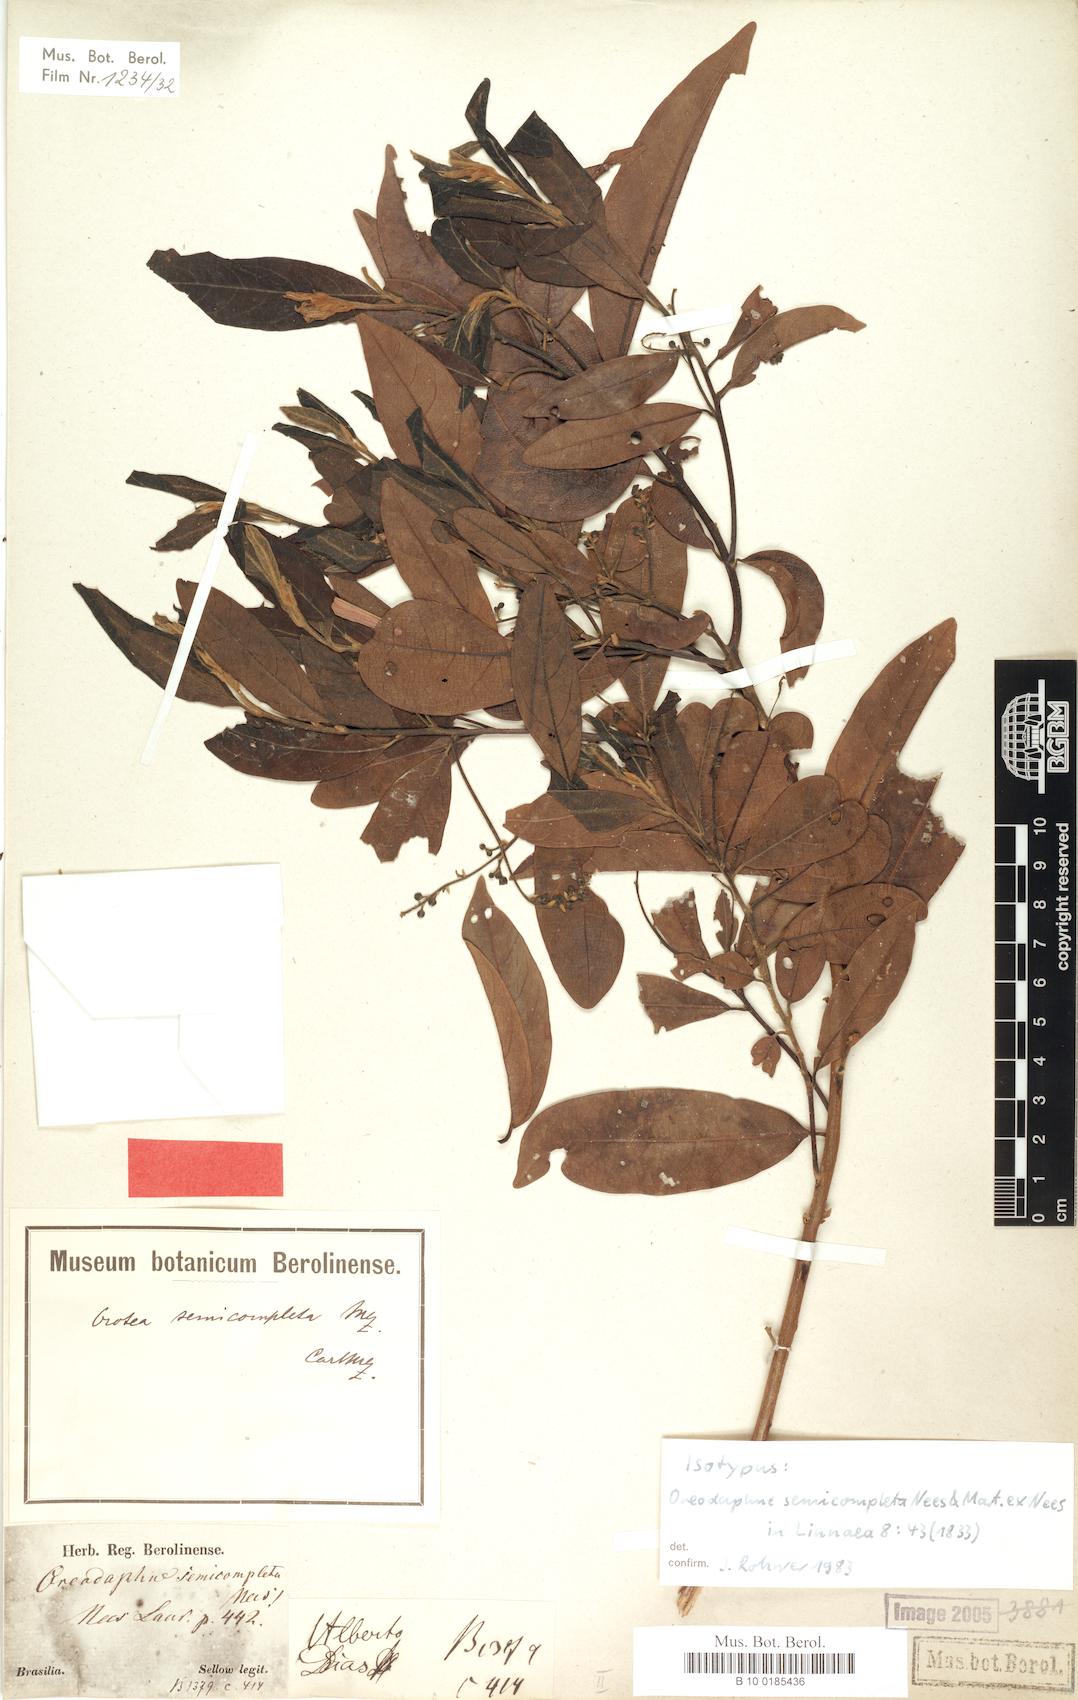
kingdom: Plantae
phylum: Tracheophyta
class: Magnoliopsida
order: Laurales
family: Lauraceae
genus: Ocotea
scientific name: Ocotea semicompleta
